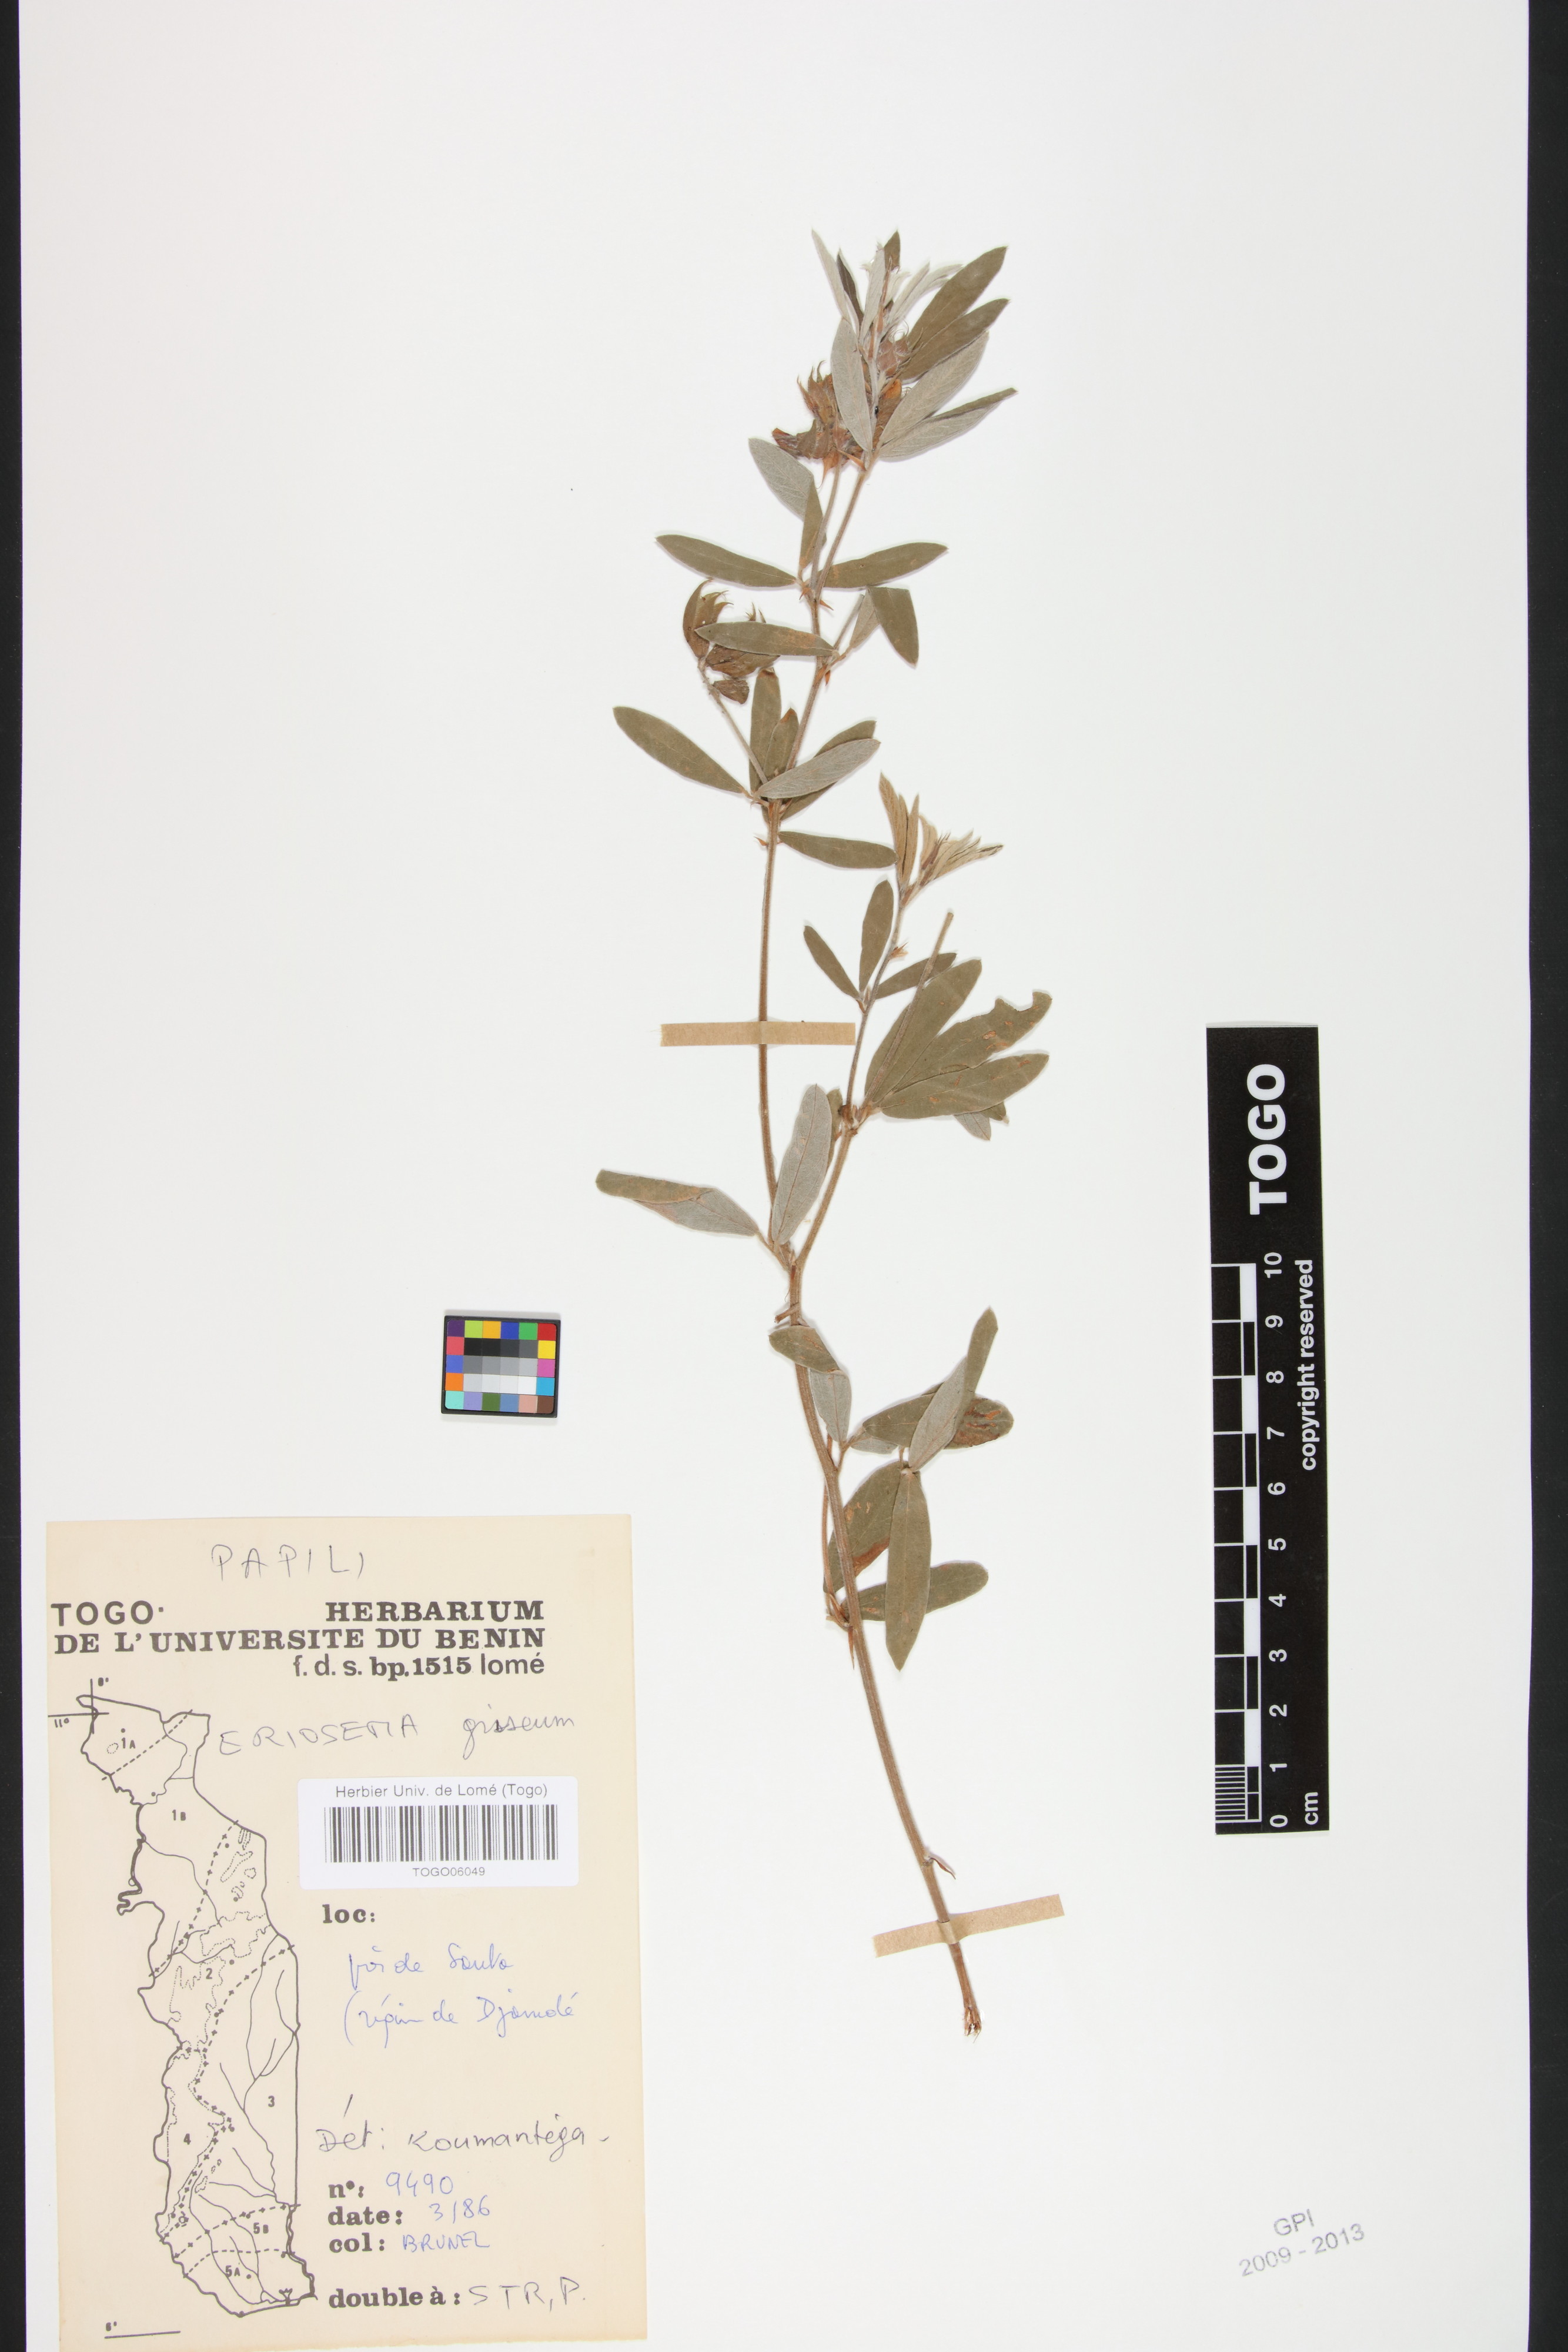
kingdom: Plantae
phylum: Tracheophyta
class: Magnoliopsida
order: Fabales
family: Fabaceae
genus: Eriosema
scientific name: Eriosema griseum
